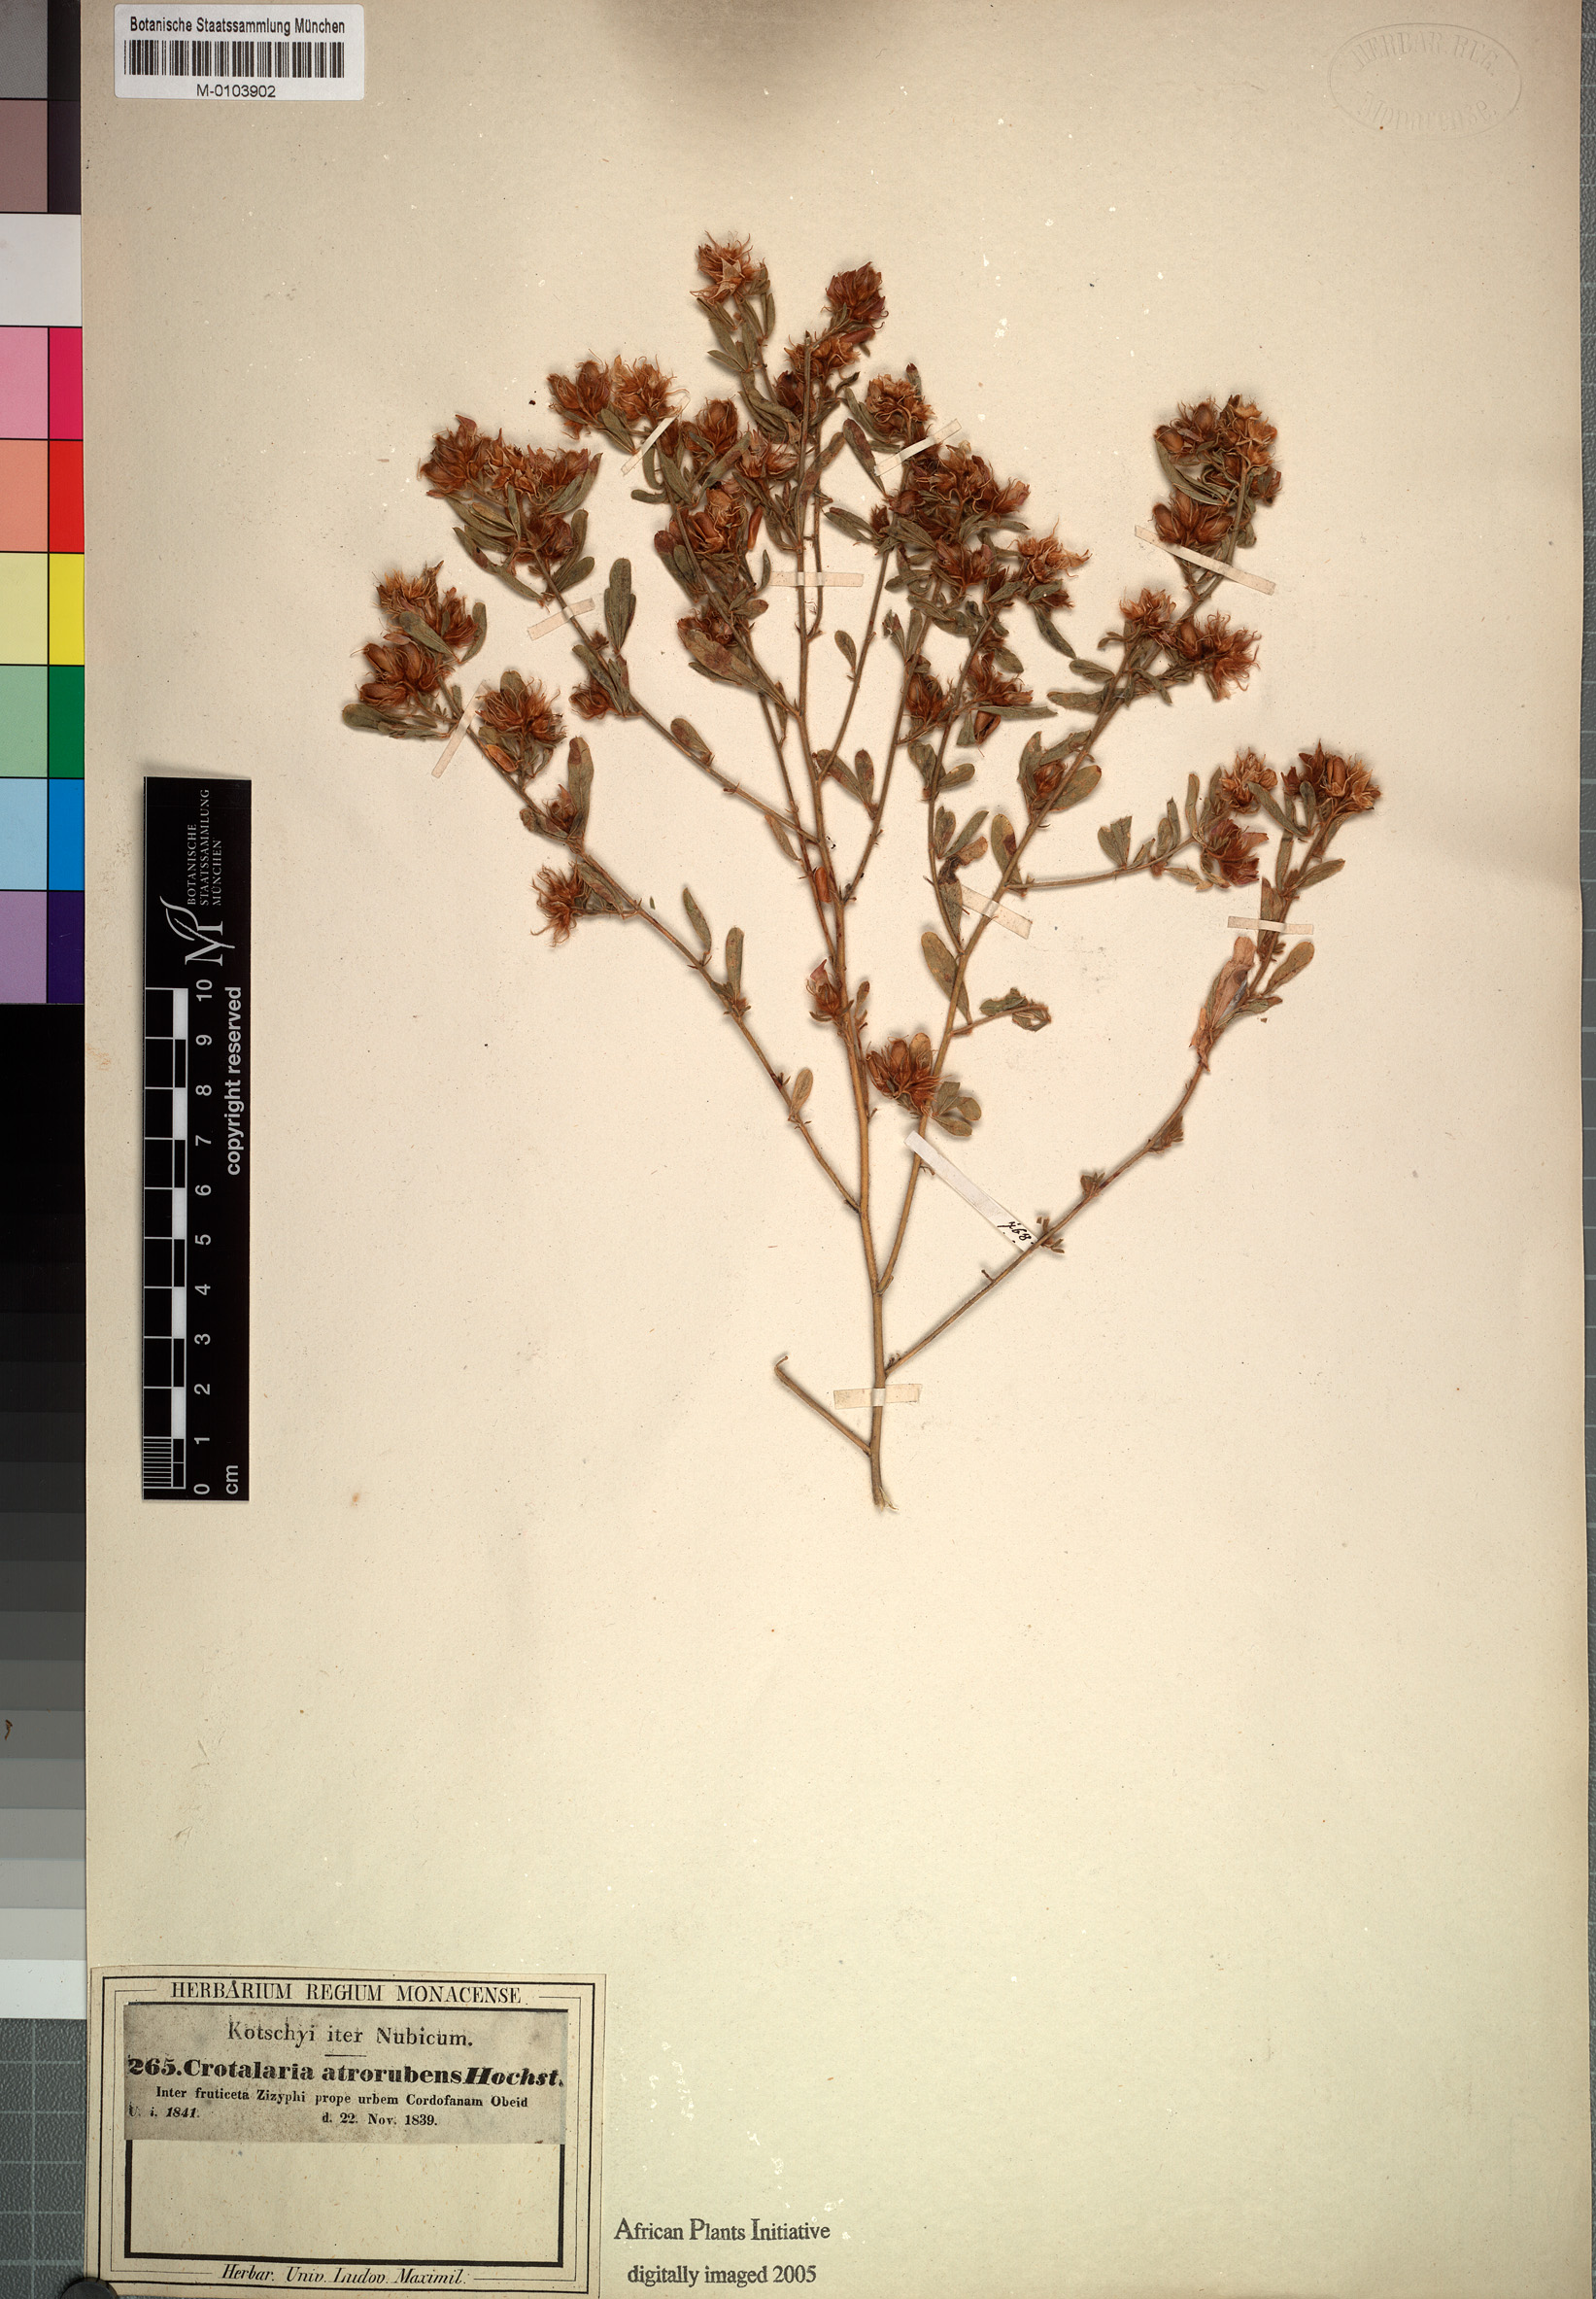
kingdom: Plantae
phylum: Tracheophyta
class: Magnoliopsida
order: Fabales
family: Fabaceae
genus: Crotalaria
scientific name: Crotalaria atrorubens
